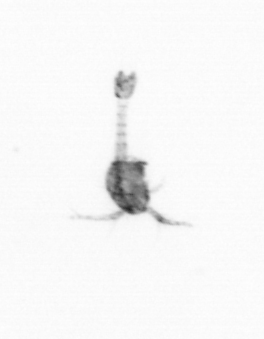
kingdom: Animalia
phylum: Arthropoda
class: Copepoda
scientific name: Copepoda
